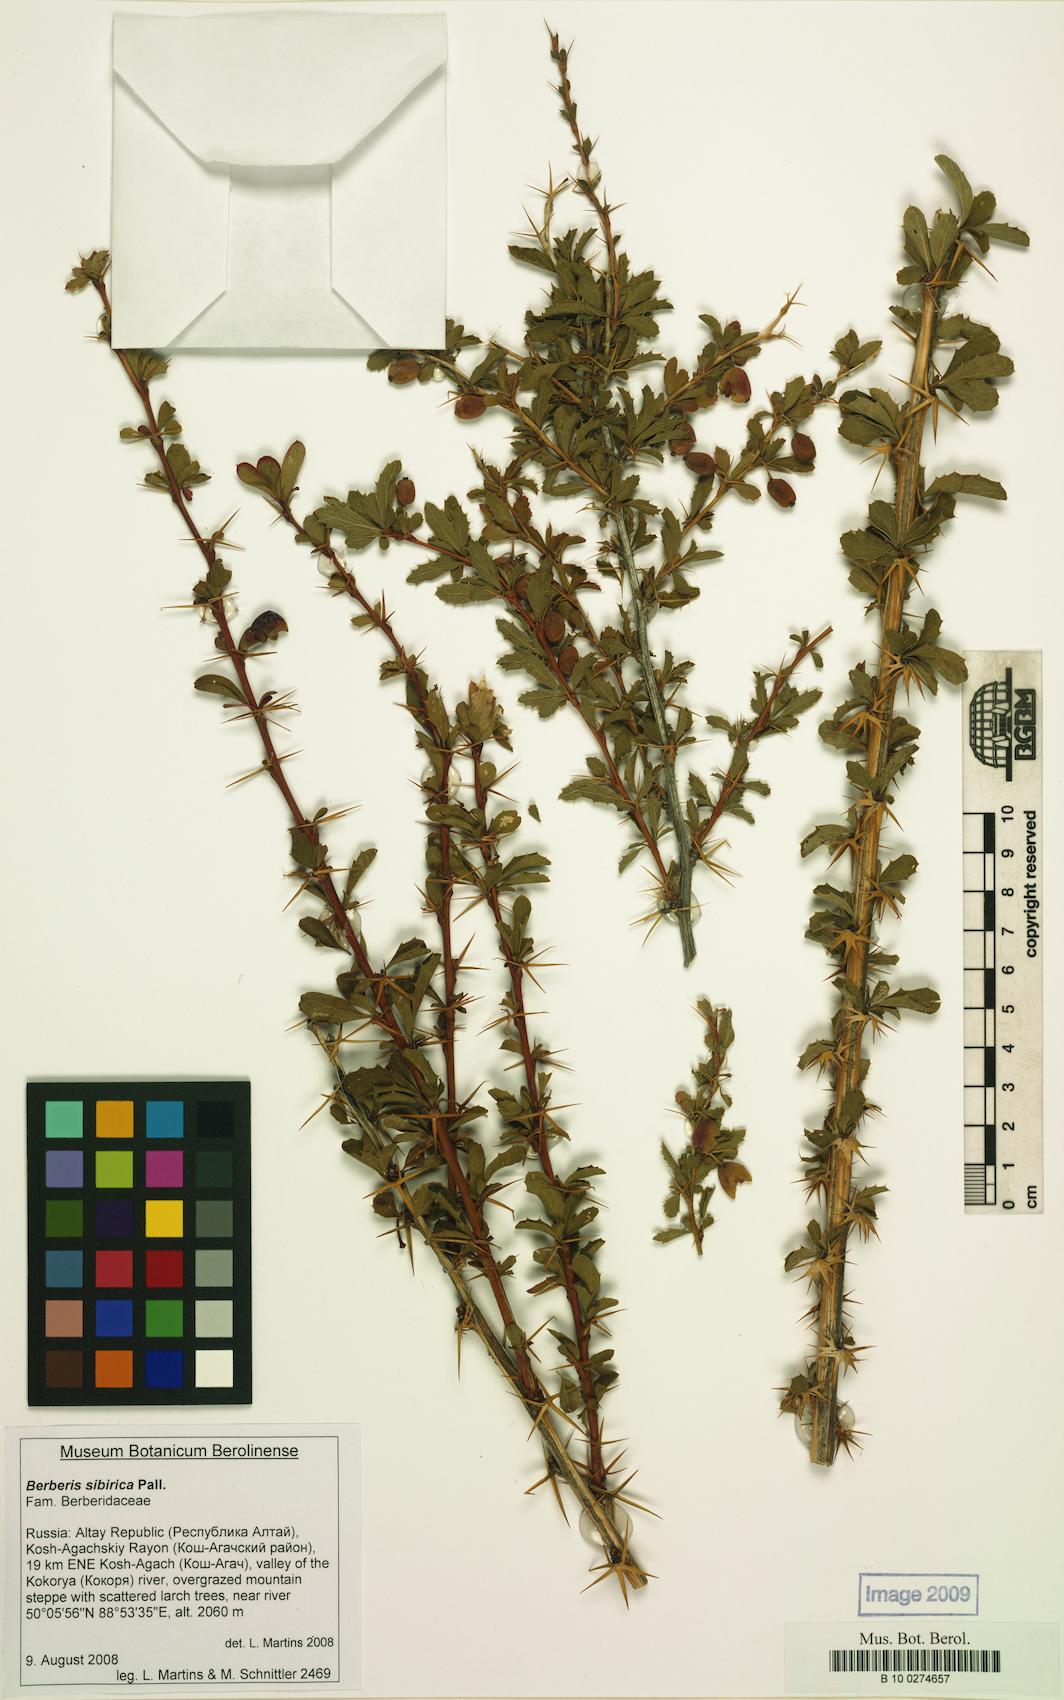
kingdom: Plantae
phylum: Tracheophyta
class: Magnoliopsida
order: Ranunculales
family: Berberidaceae
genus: Berberis
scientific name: Berberis sibirica
